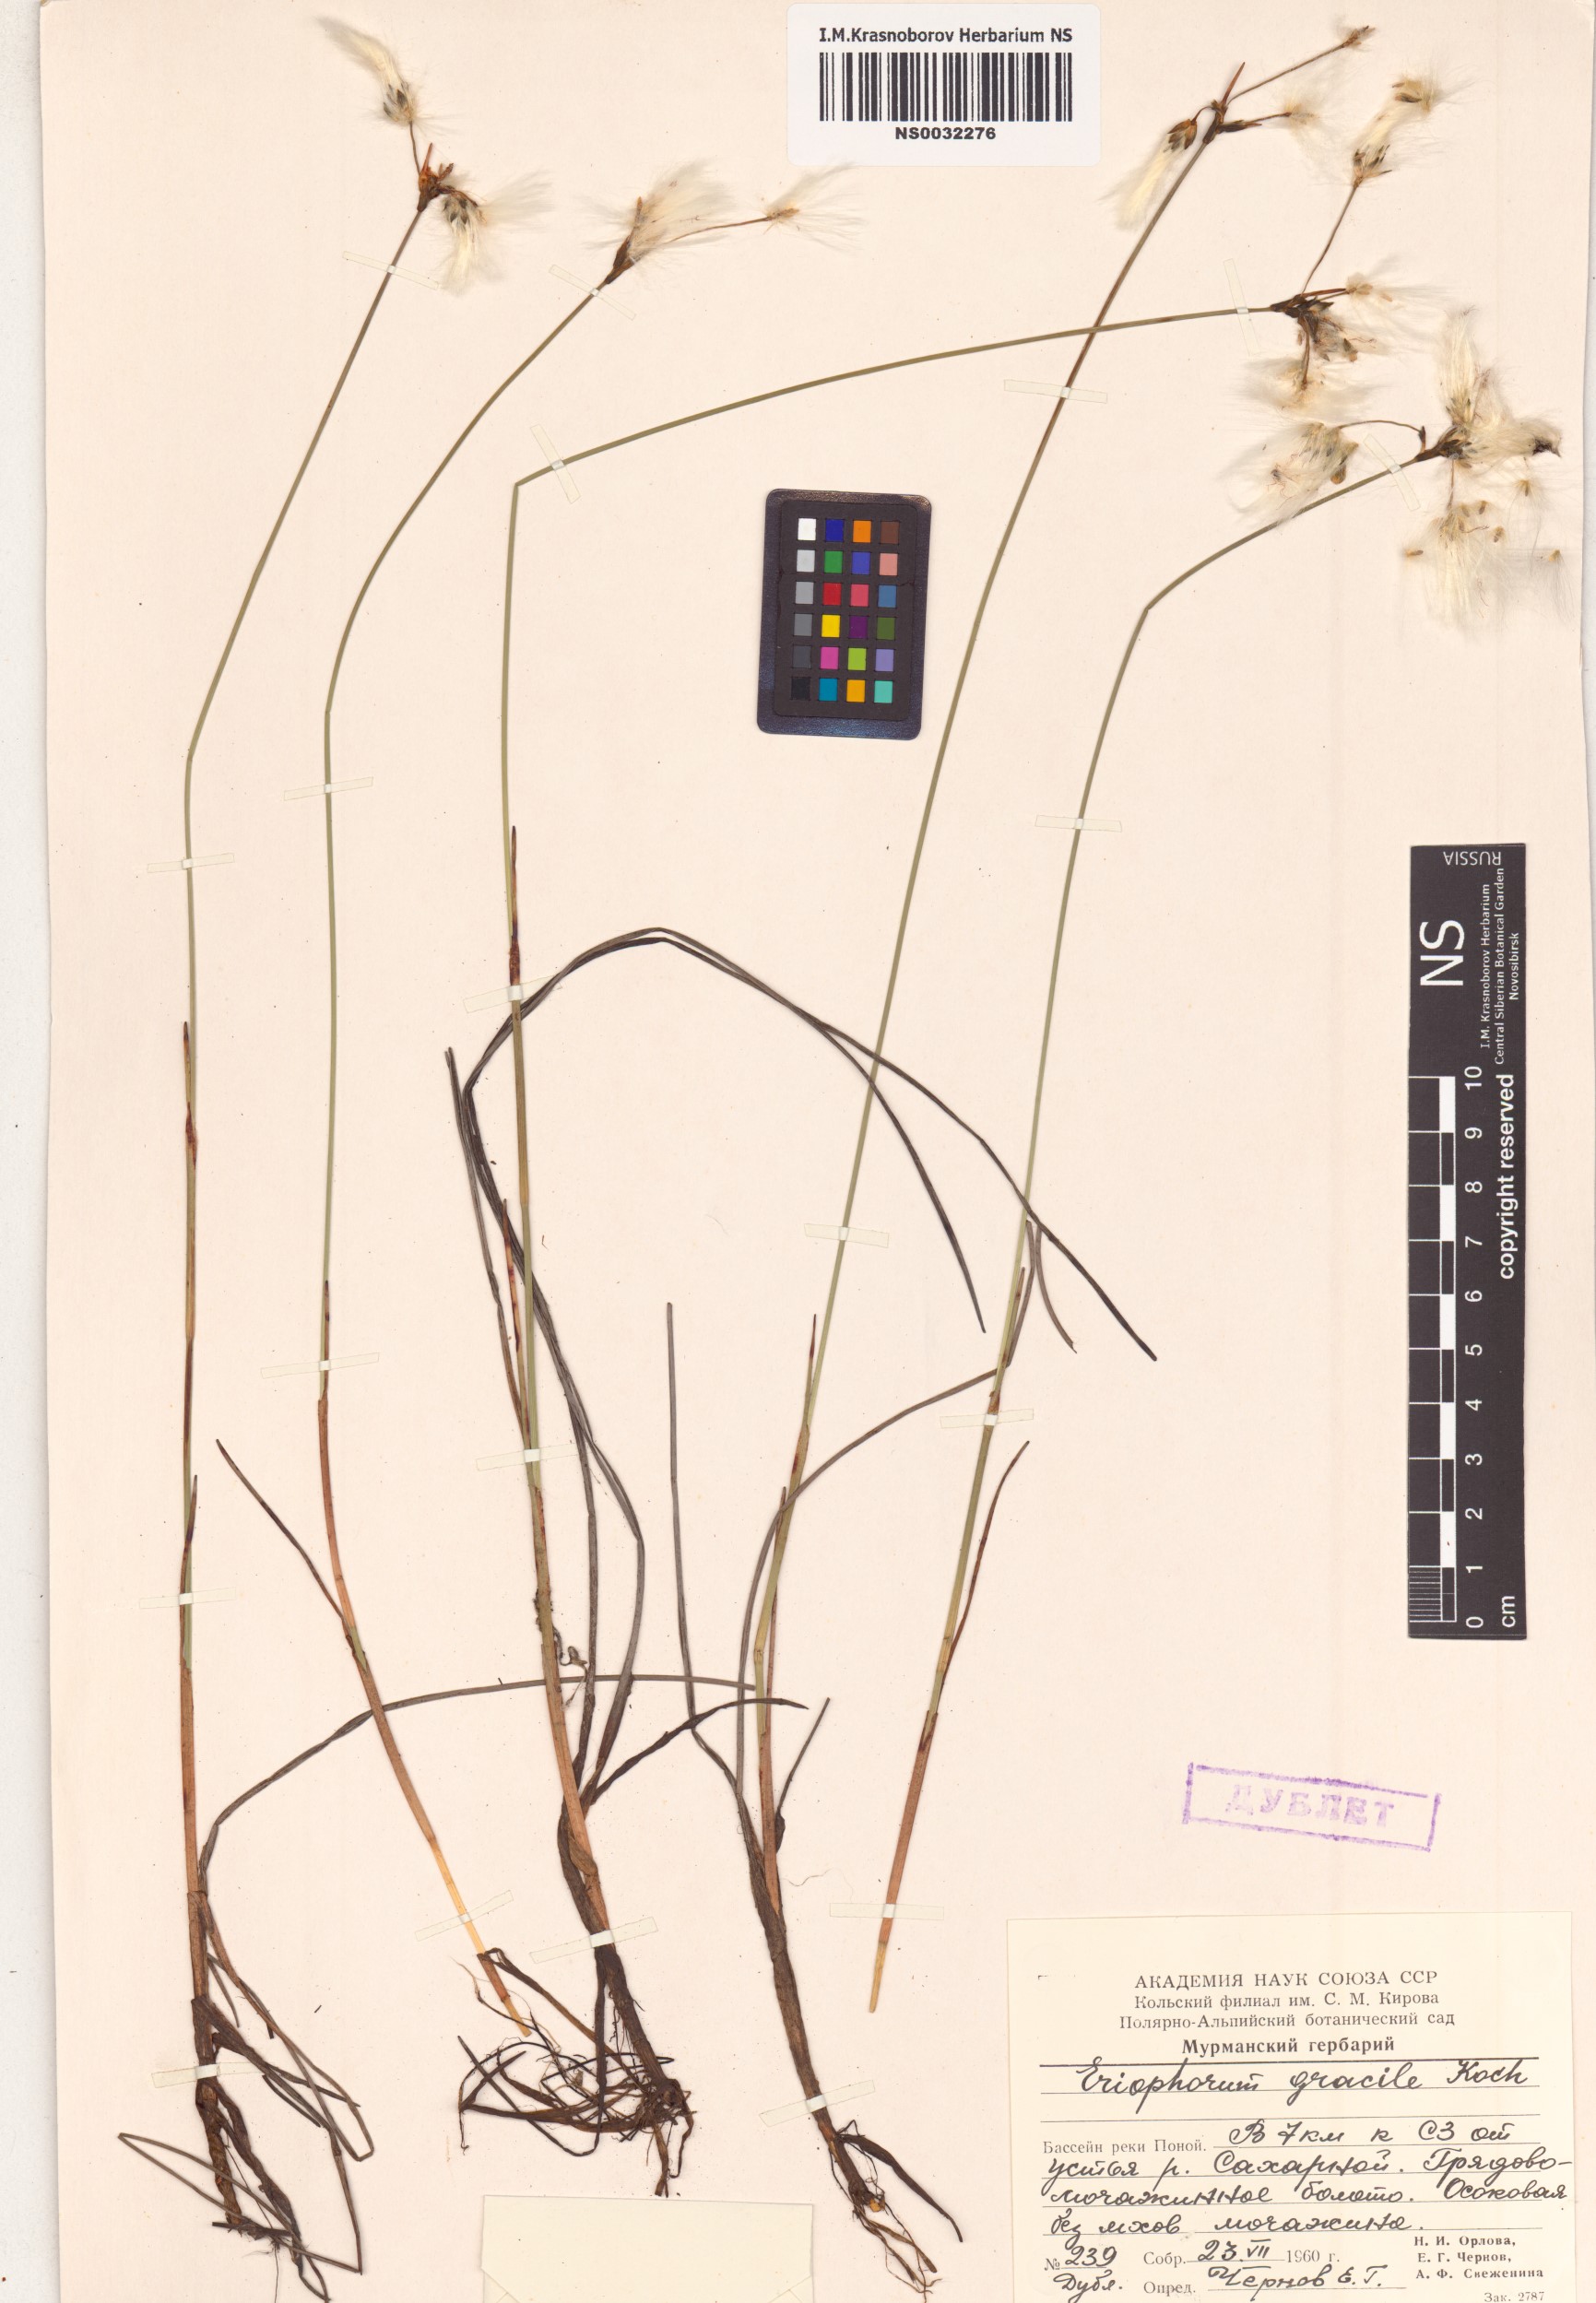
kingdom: Plantae
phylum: Tracheophyta
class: Liliopsida
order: Poales
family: Cyperaceae
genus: Eriophorum
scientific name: Eriophorum gracile
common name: Slender cottongrass
